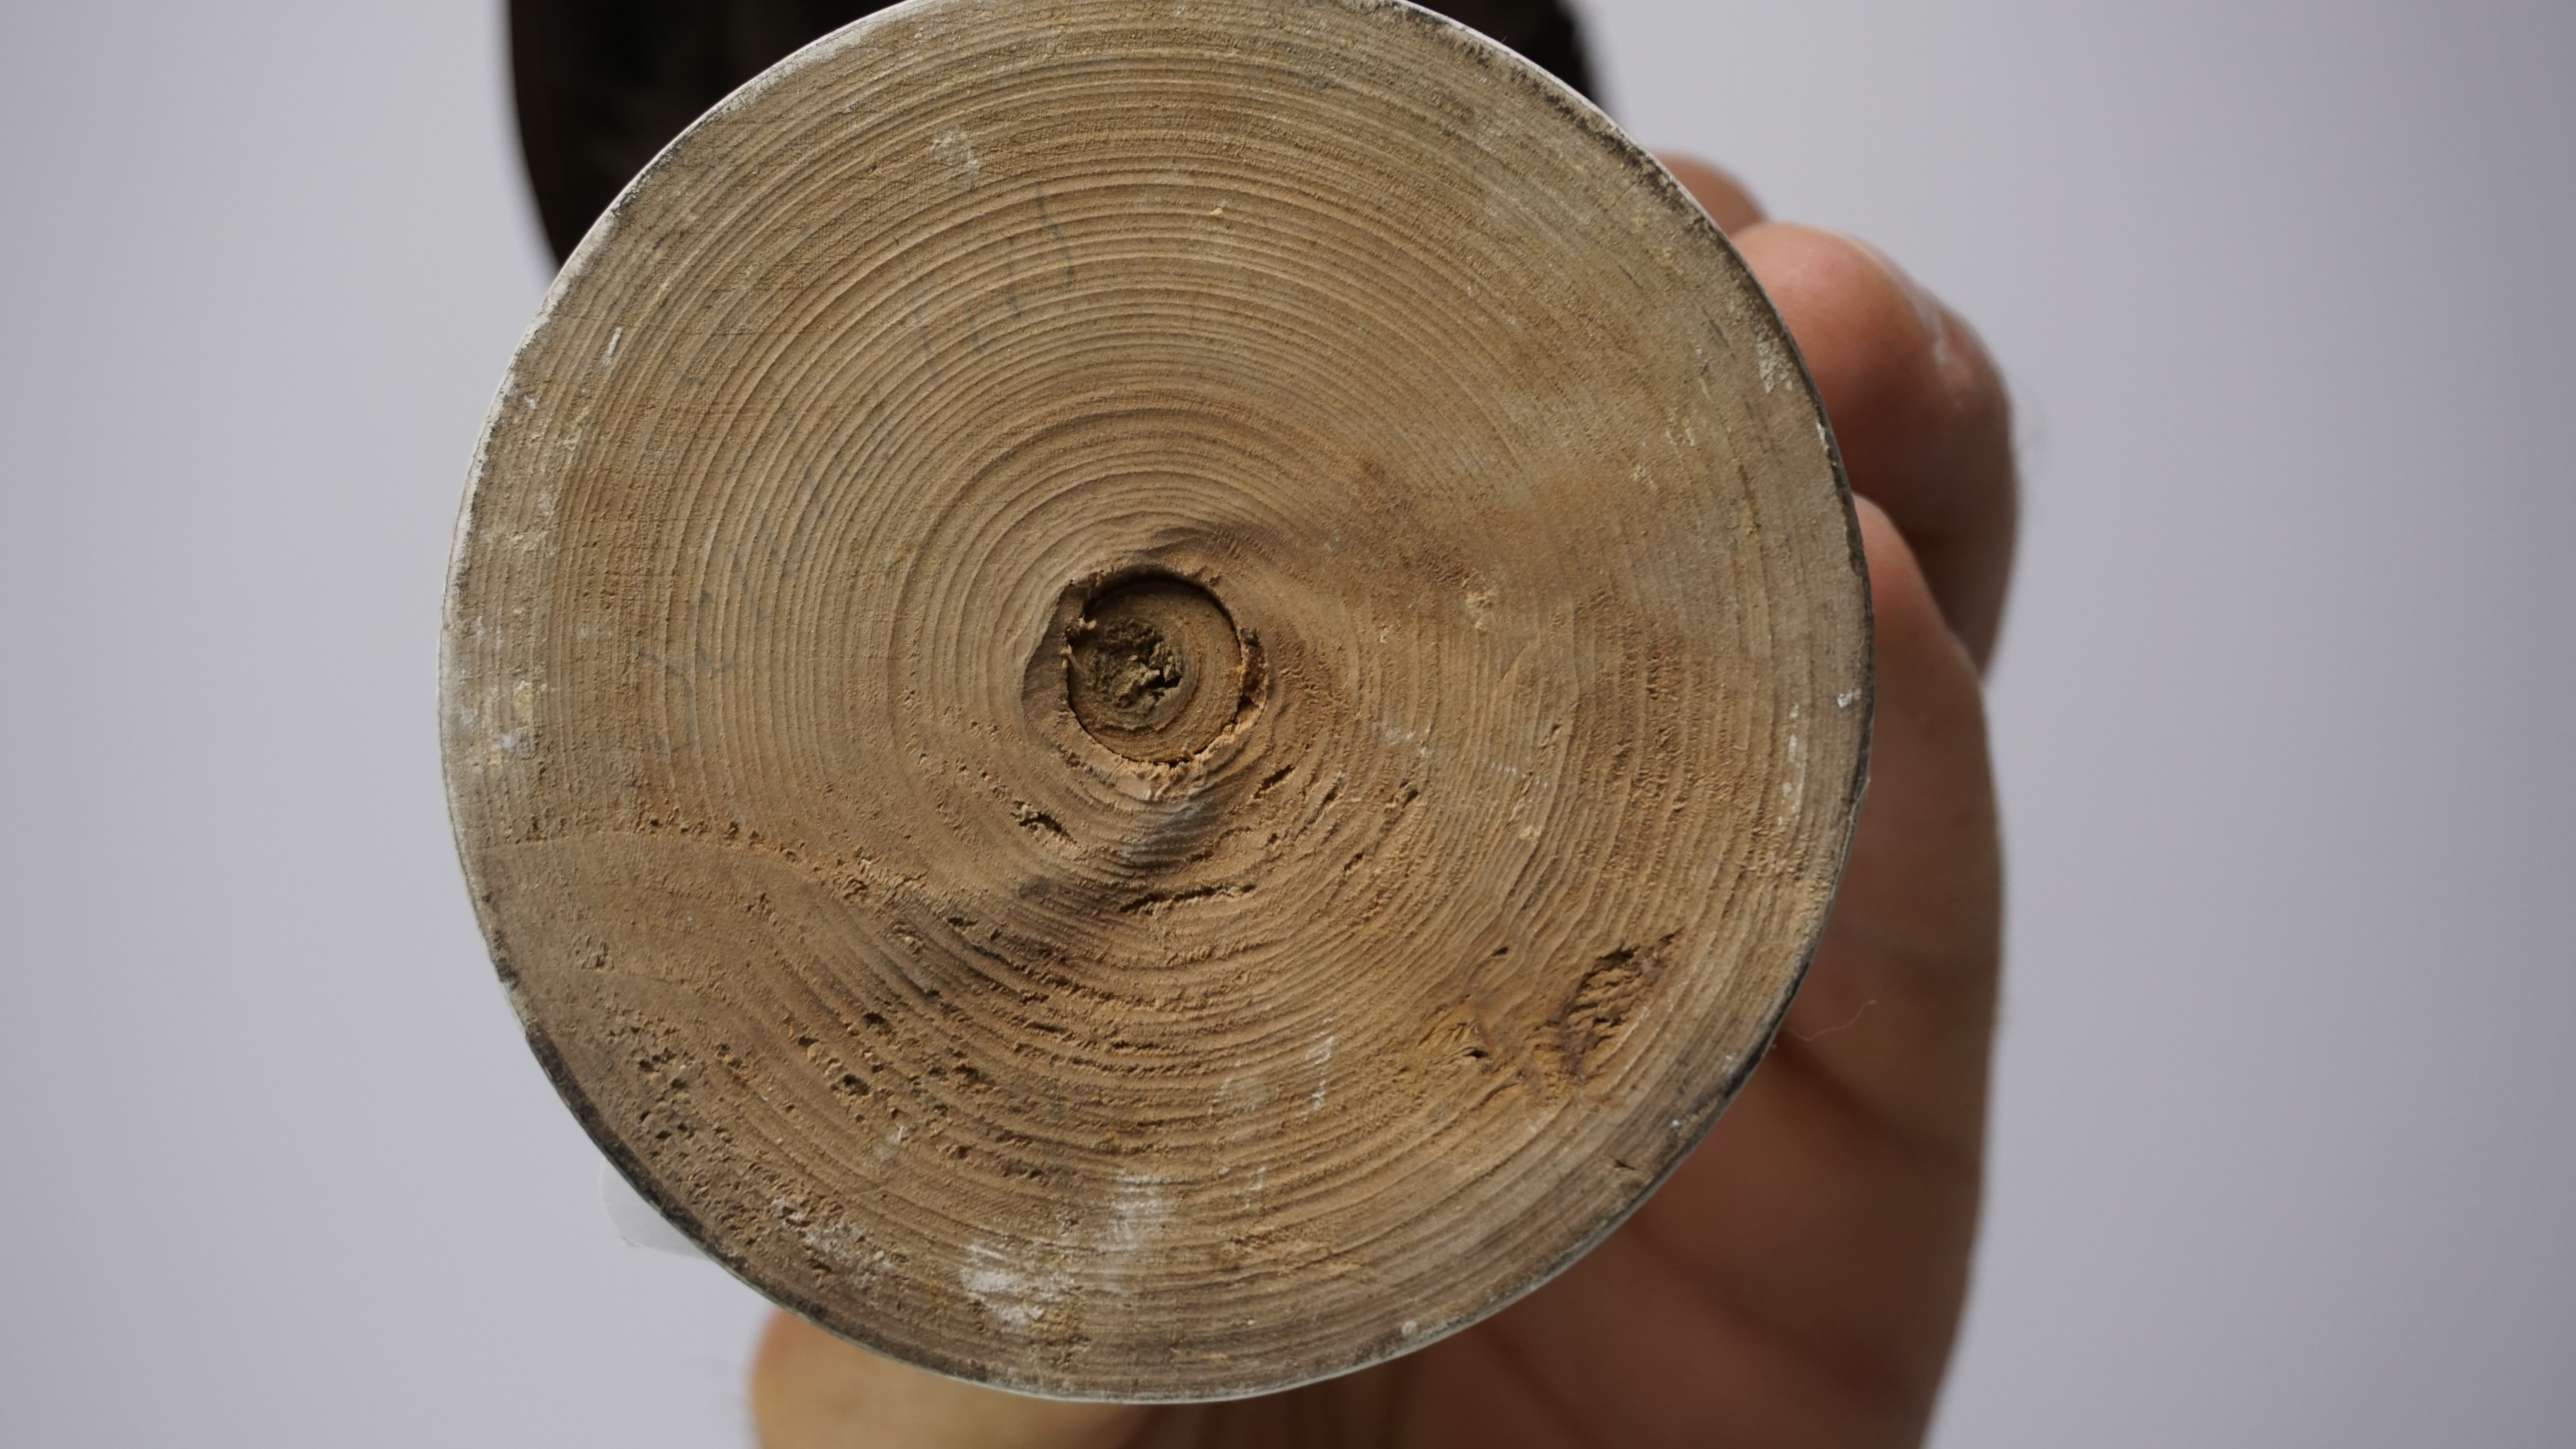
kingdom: Animalia
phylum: Chordata
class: Aves
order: Musophagiformes
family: Musophagidae
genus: Tauraco
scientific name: Tauraco corythaix
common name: Knysna turaco
